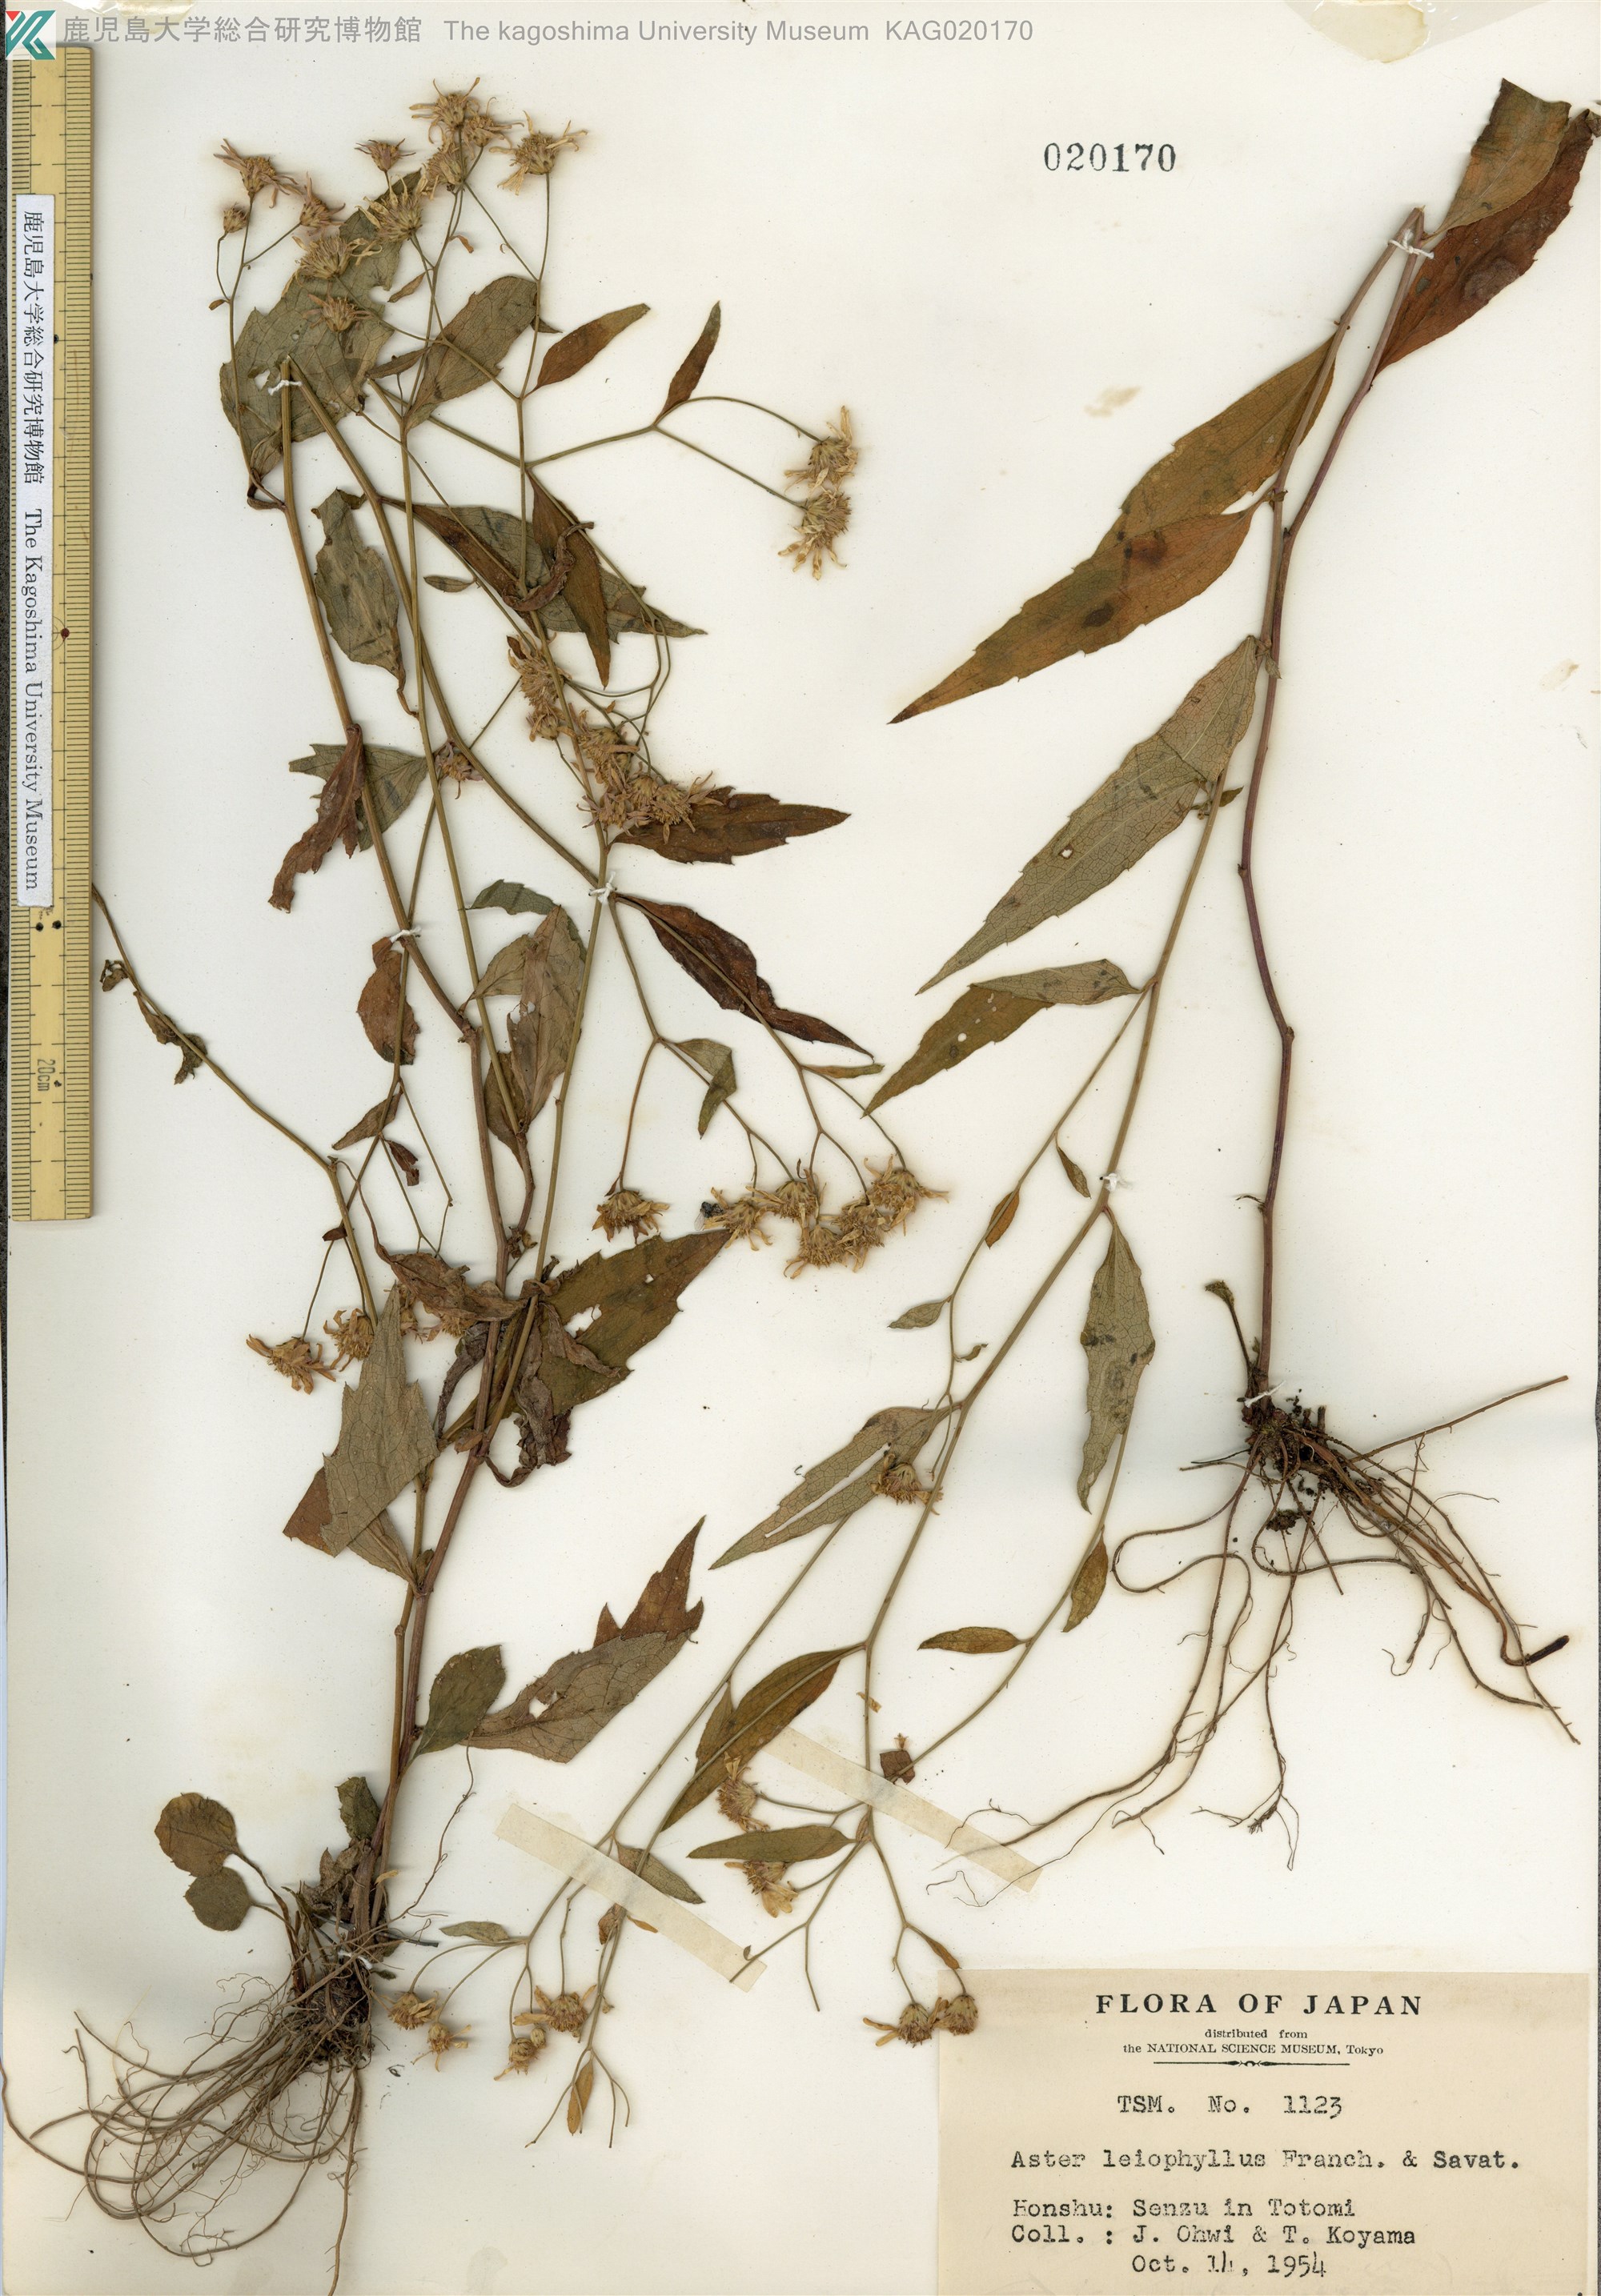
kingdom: Plantae
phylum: Tracheophyta
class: Magnoliopsida
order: Asterales
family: Asteraceae
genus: Aster
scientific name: Aster ageratoides
